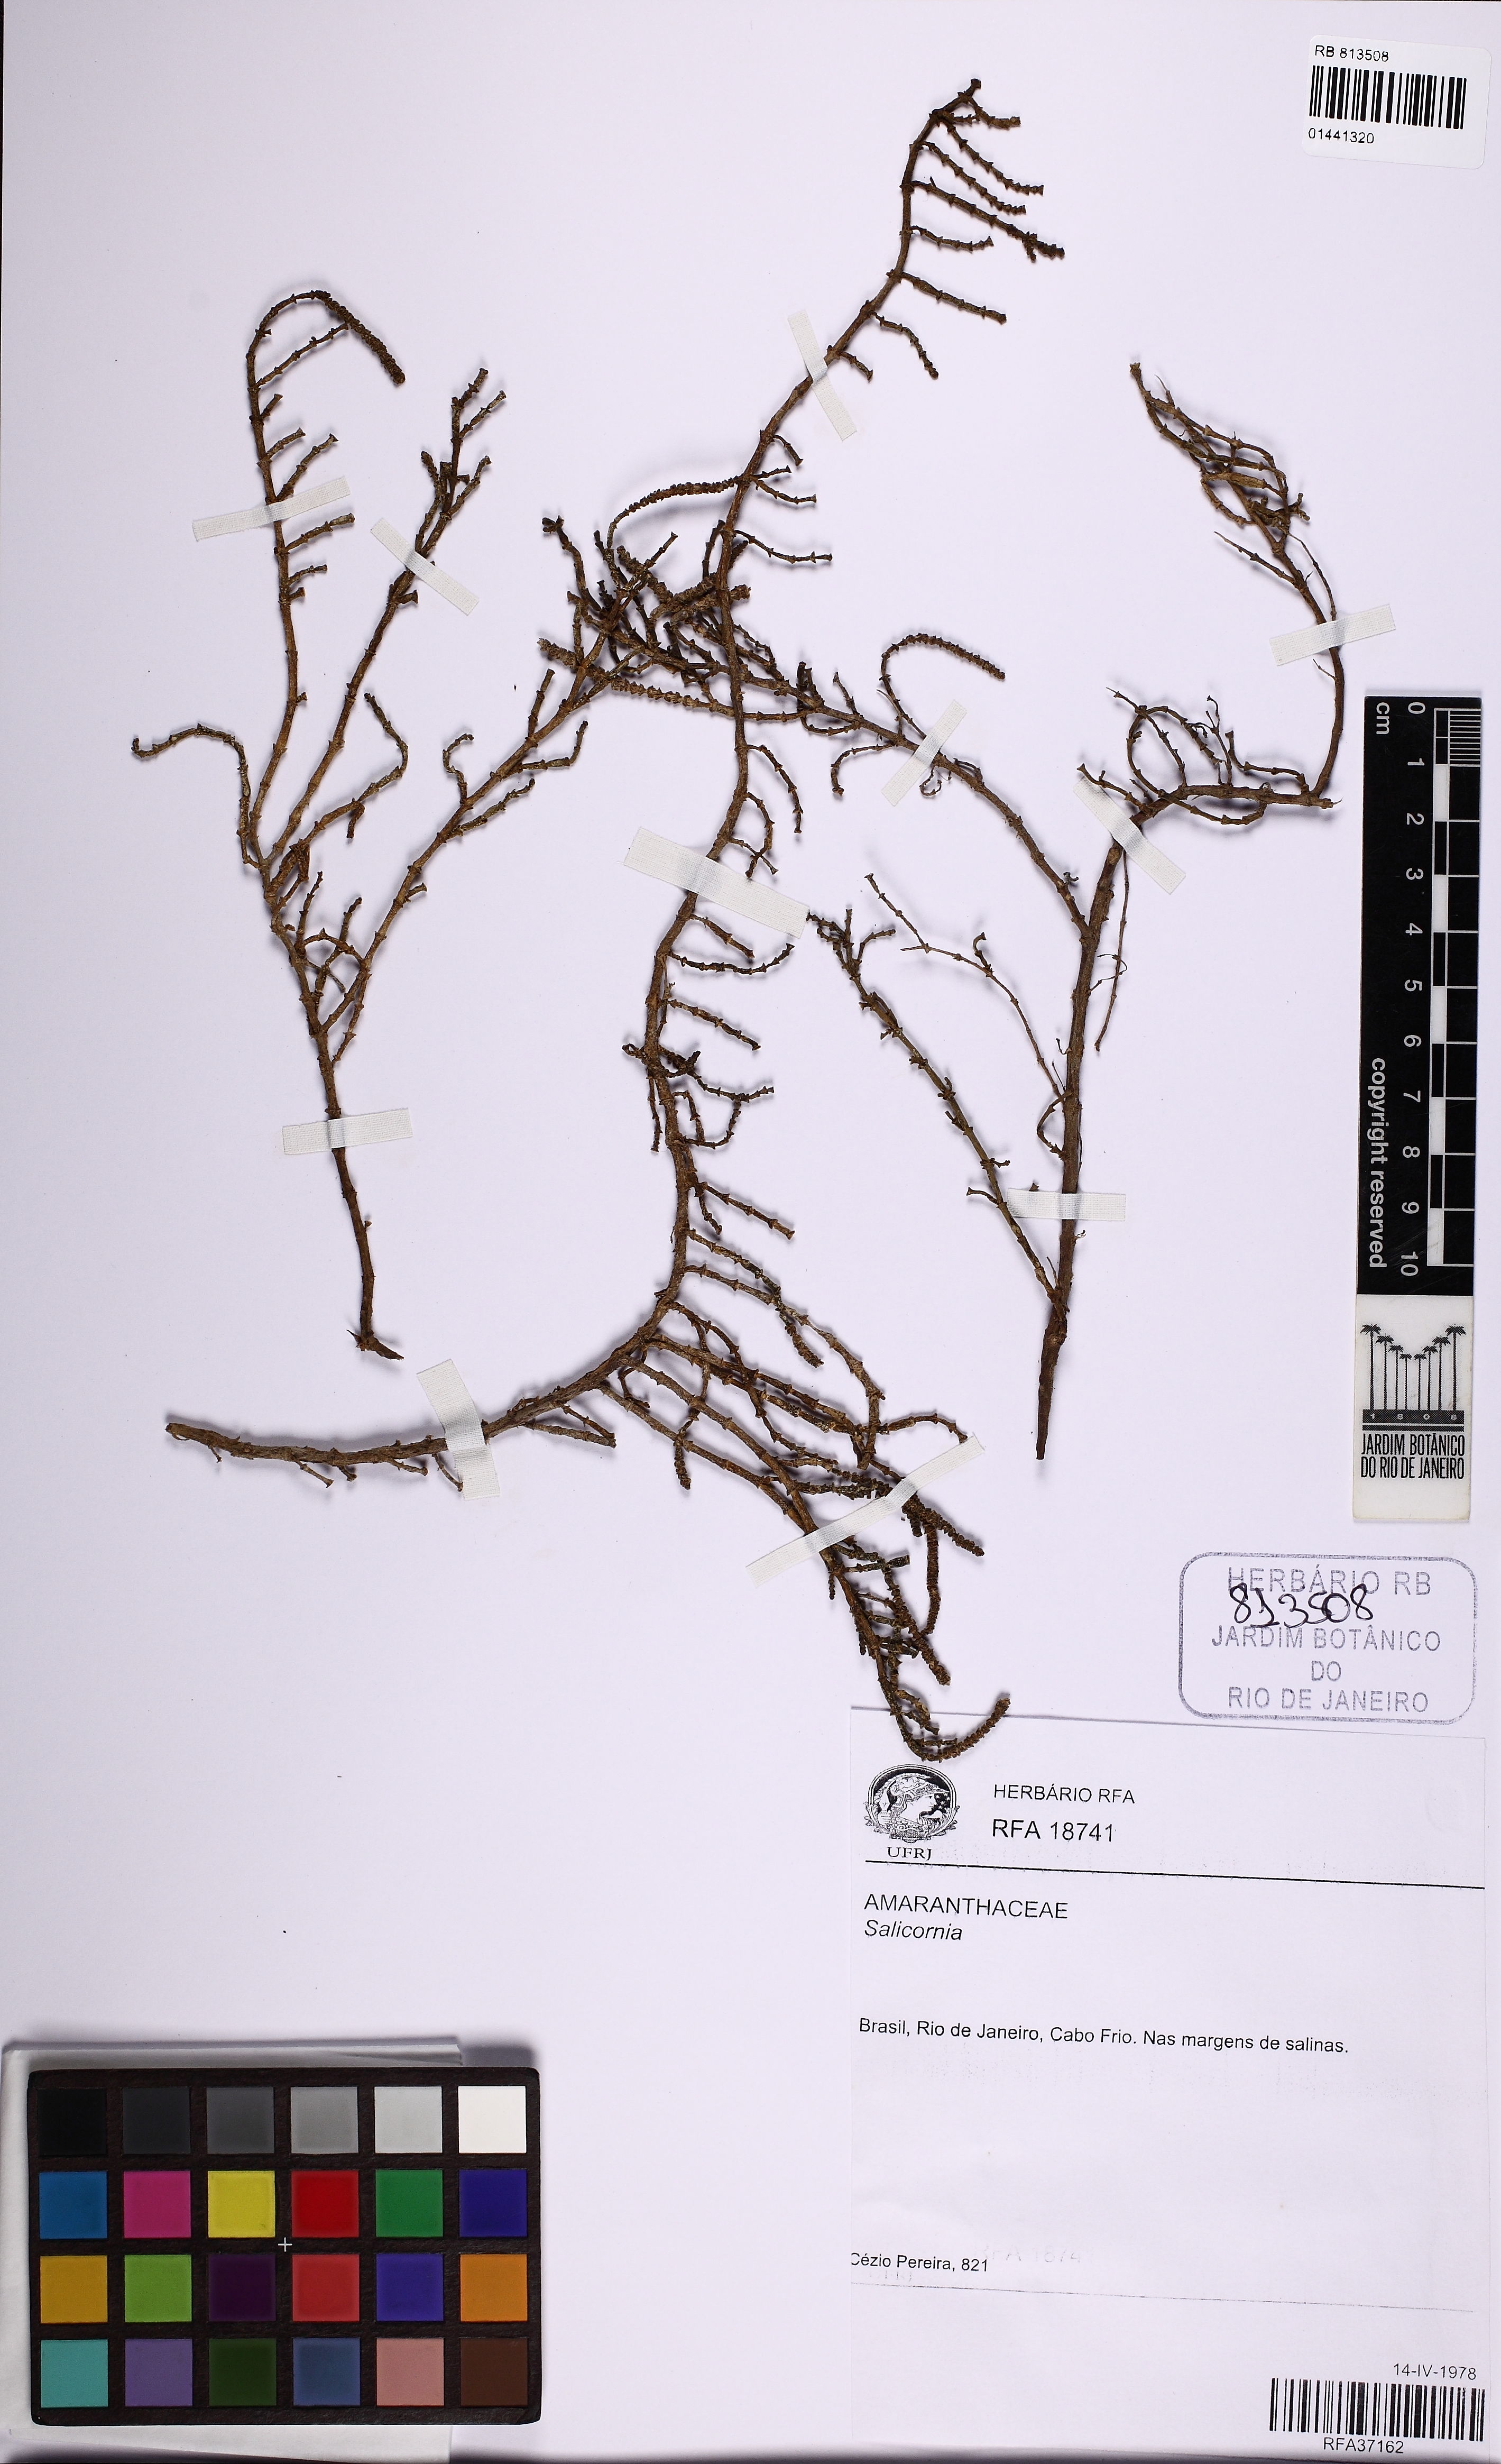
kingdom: Plantae
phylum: Tracheophyta
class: Magnoliopsida
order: Caryophyllales
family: Amaranthaceae
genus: Salicornia
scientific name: Salicornia
